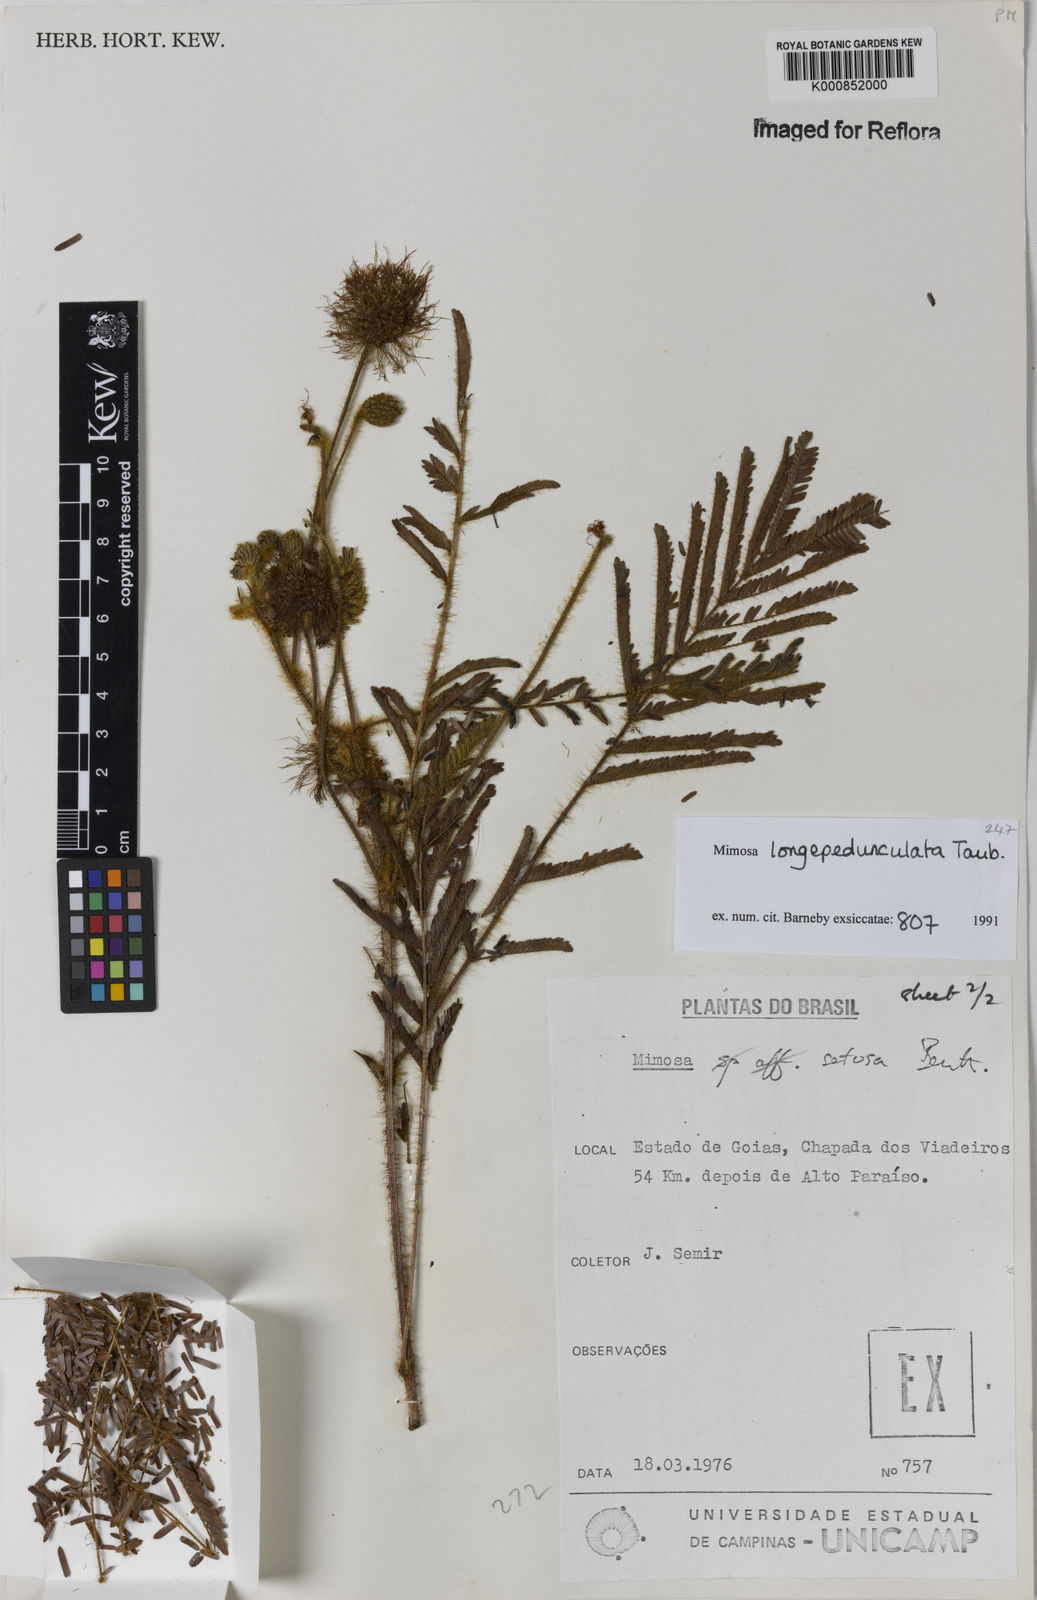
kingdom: Plantae
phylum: Tracheophyta
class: Magnoliopsida
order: Fabales
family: Fabaceae
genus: Mimosa
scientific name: Mimosa tocantina
